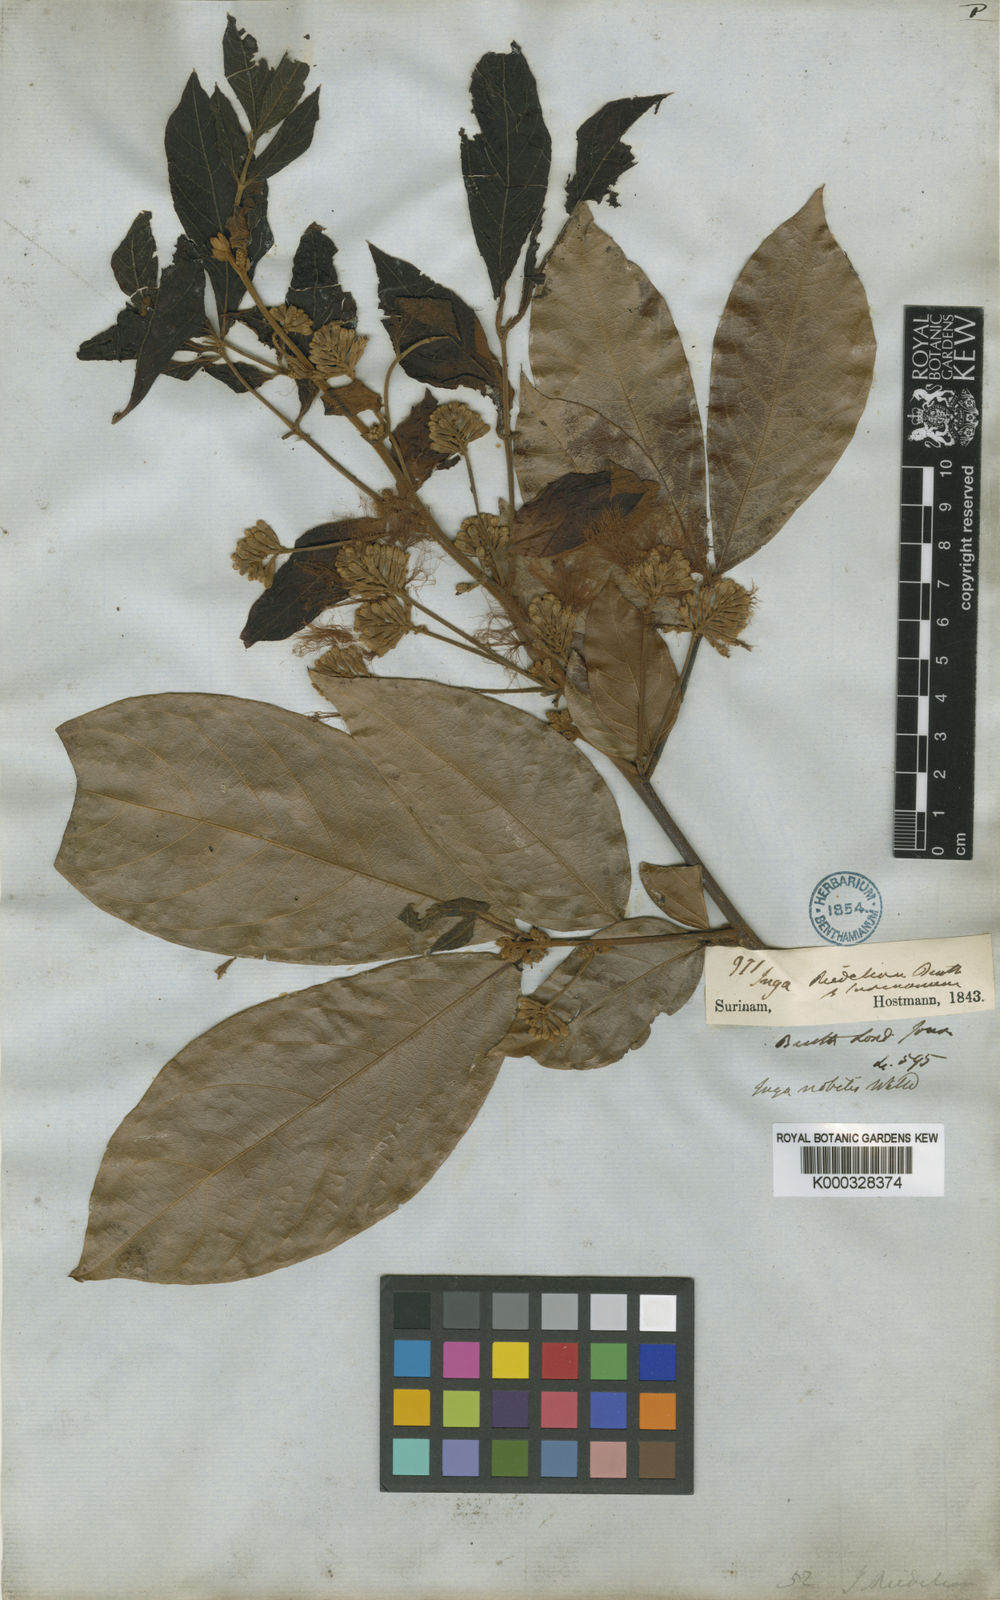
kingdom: Plantae
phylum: Tracheophyta
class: Magnoliopsida
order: Fabales
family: Fabaceae
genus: Inga
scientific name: Inga nobilis
